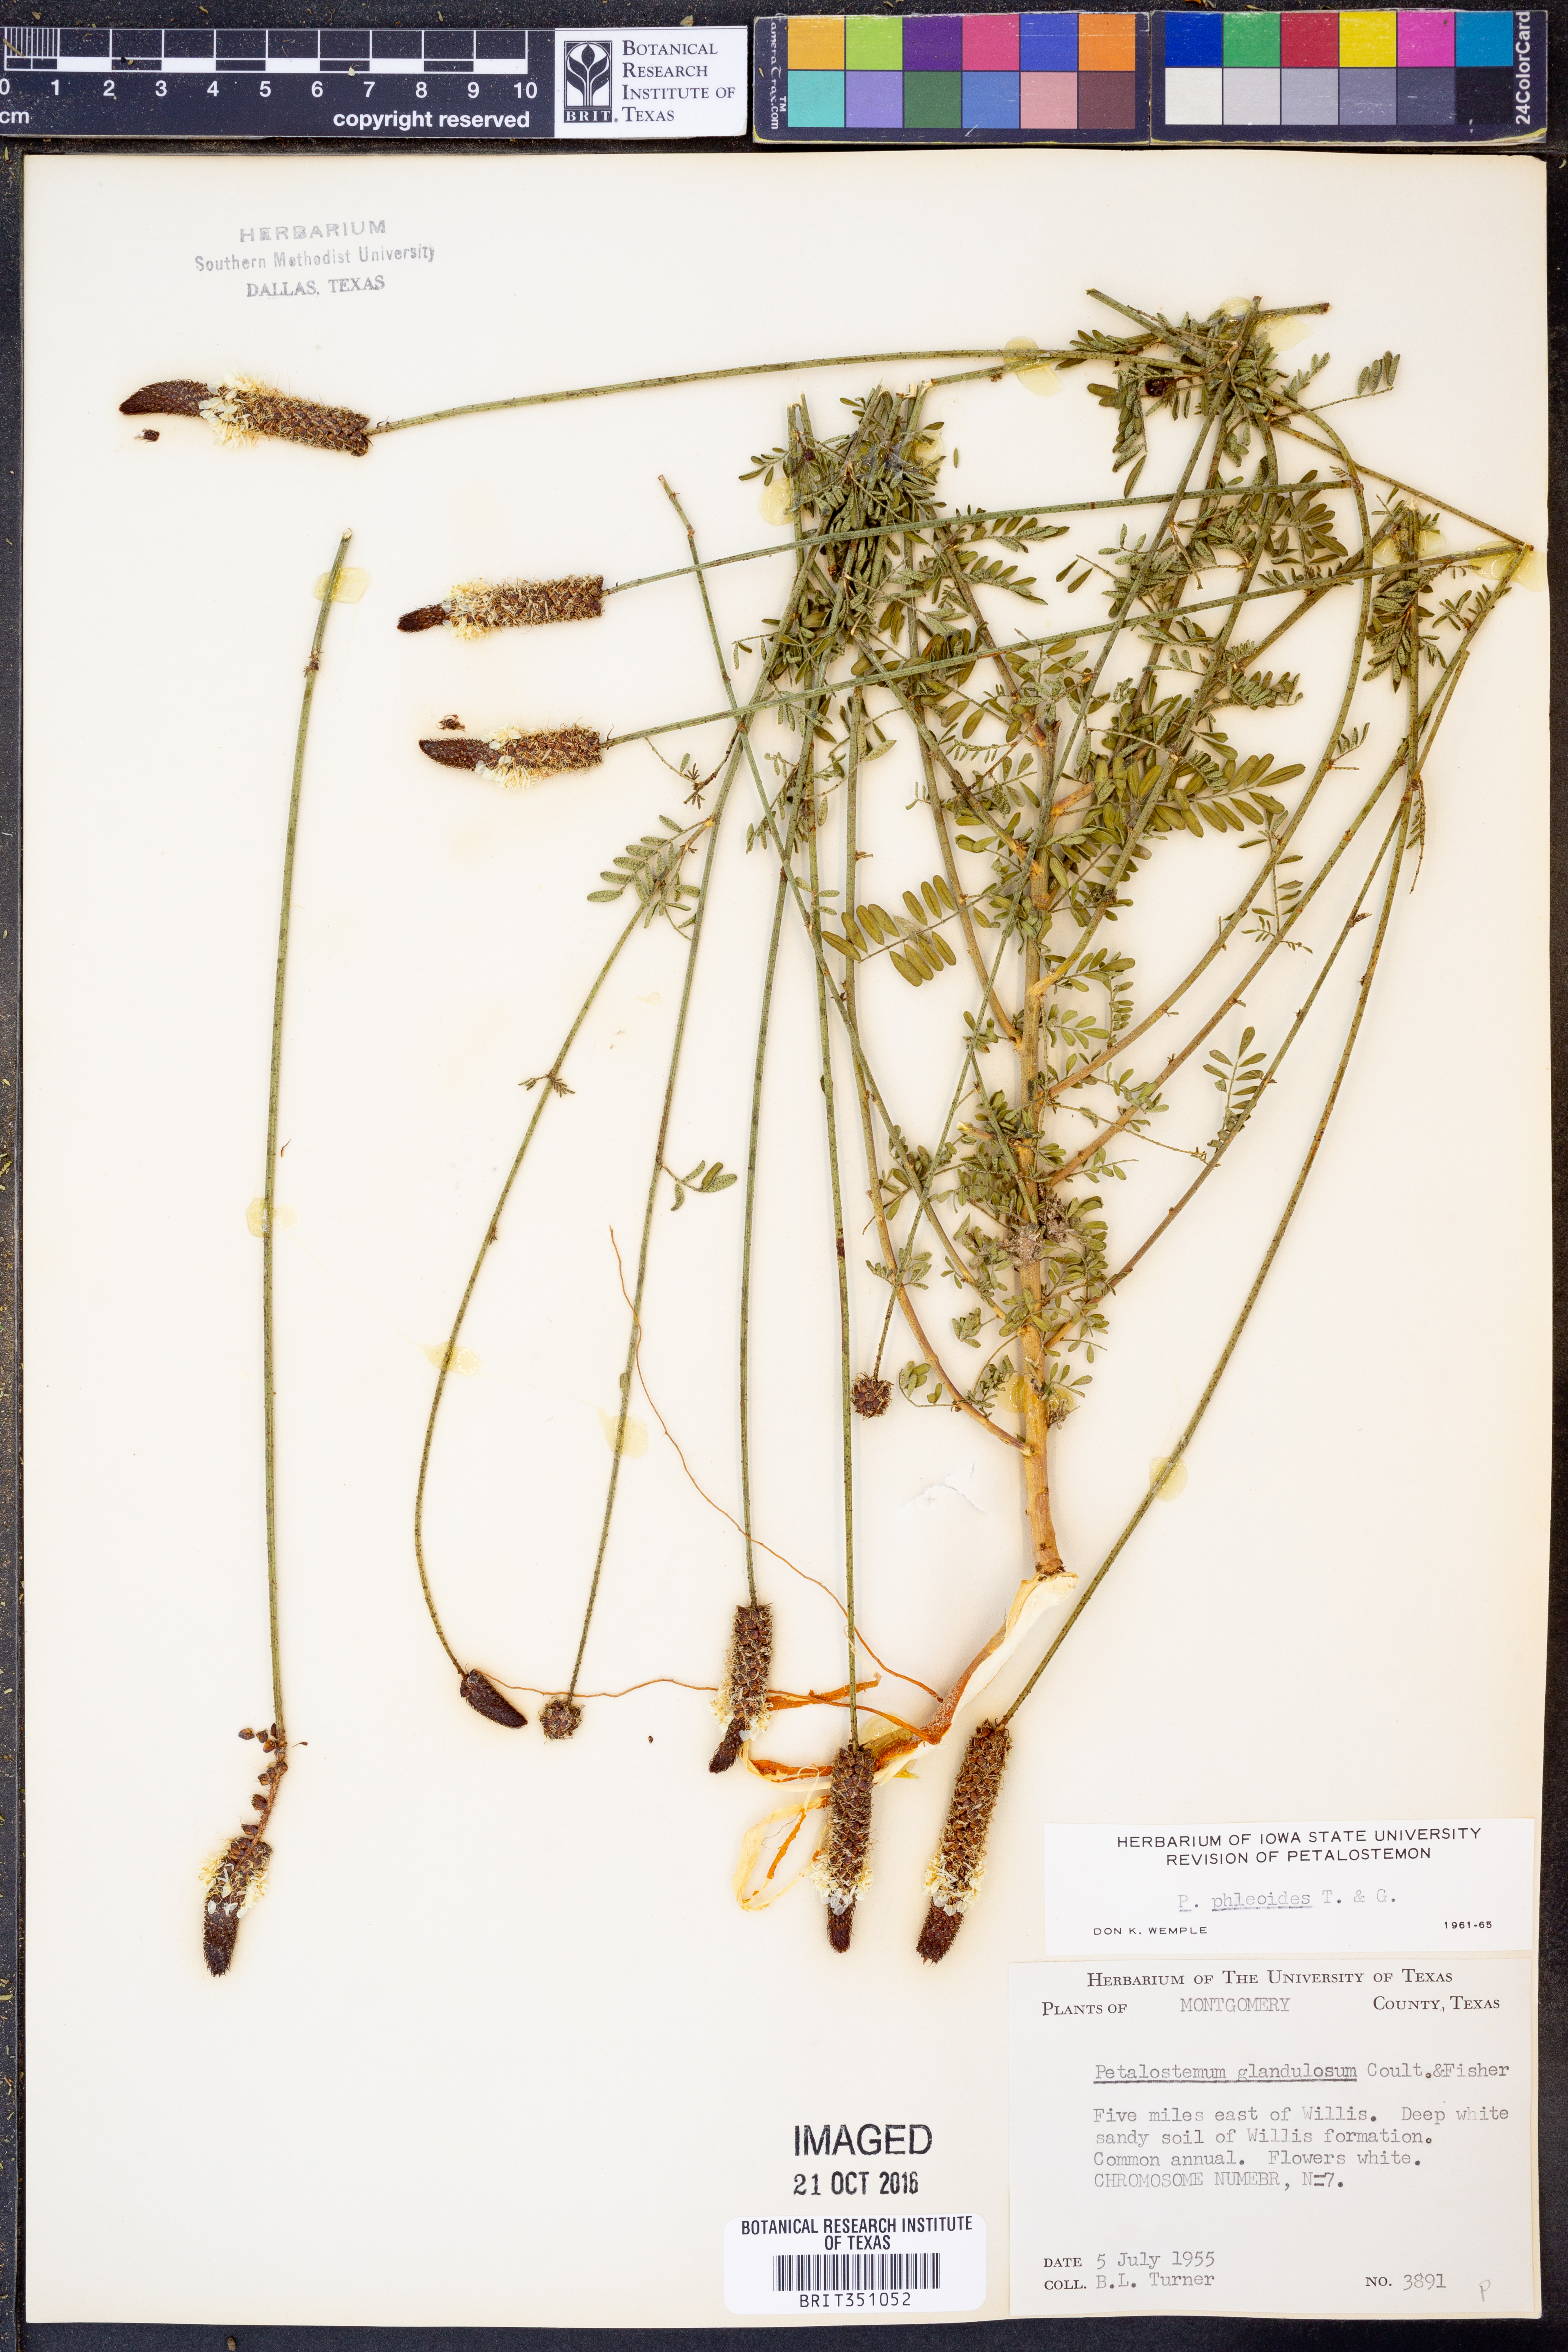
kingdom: Plantae
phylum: Tracheophyta
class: Magnoliopsida
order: Fabales
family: Fabaceae
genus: Dalea
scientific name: Dalea phleoides
